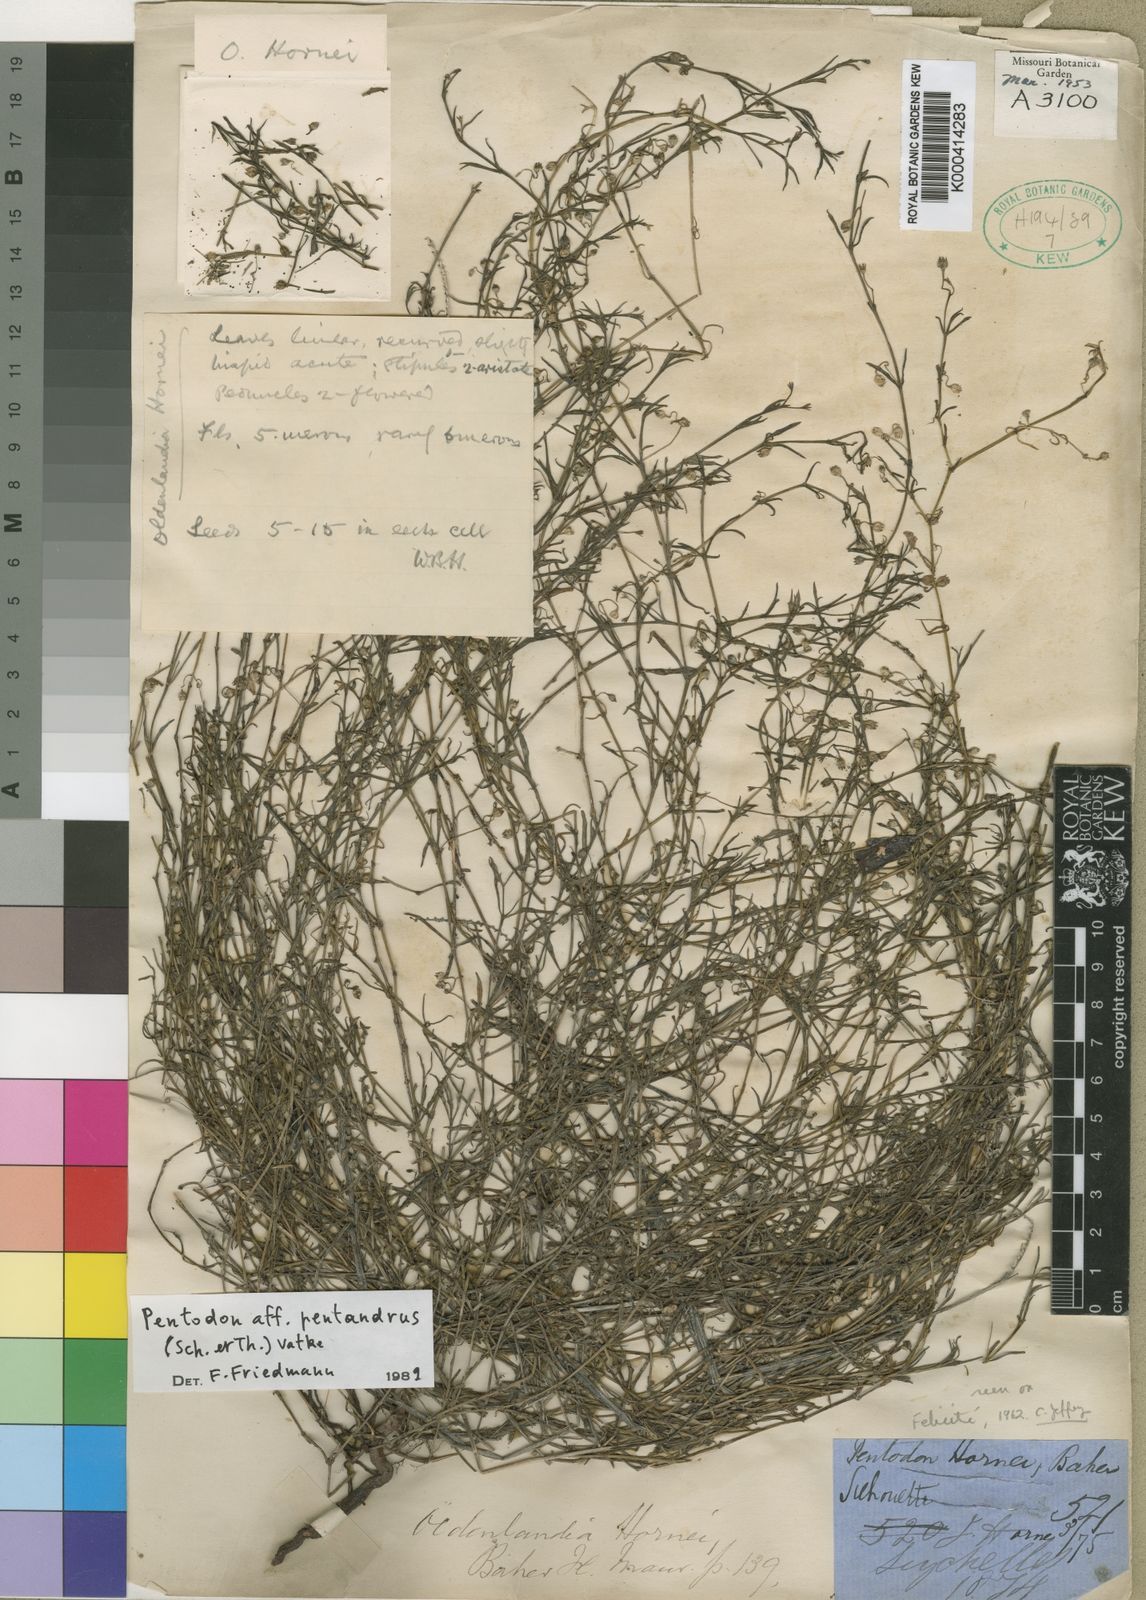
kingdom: Plantae
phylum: Tracheophyta
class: Magnoliopsida
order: Gentianales
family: Rubiaceae
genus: Pentodon
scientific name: Pentodon pentandrus
